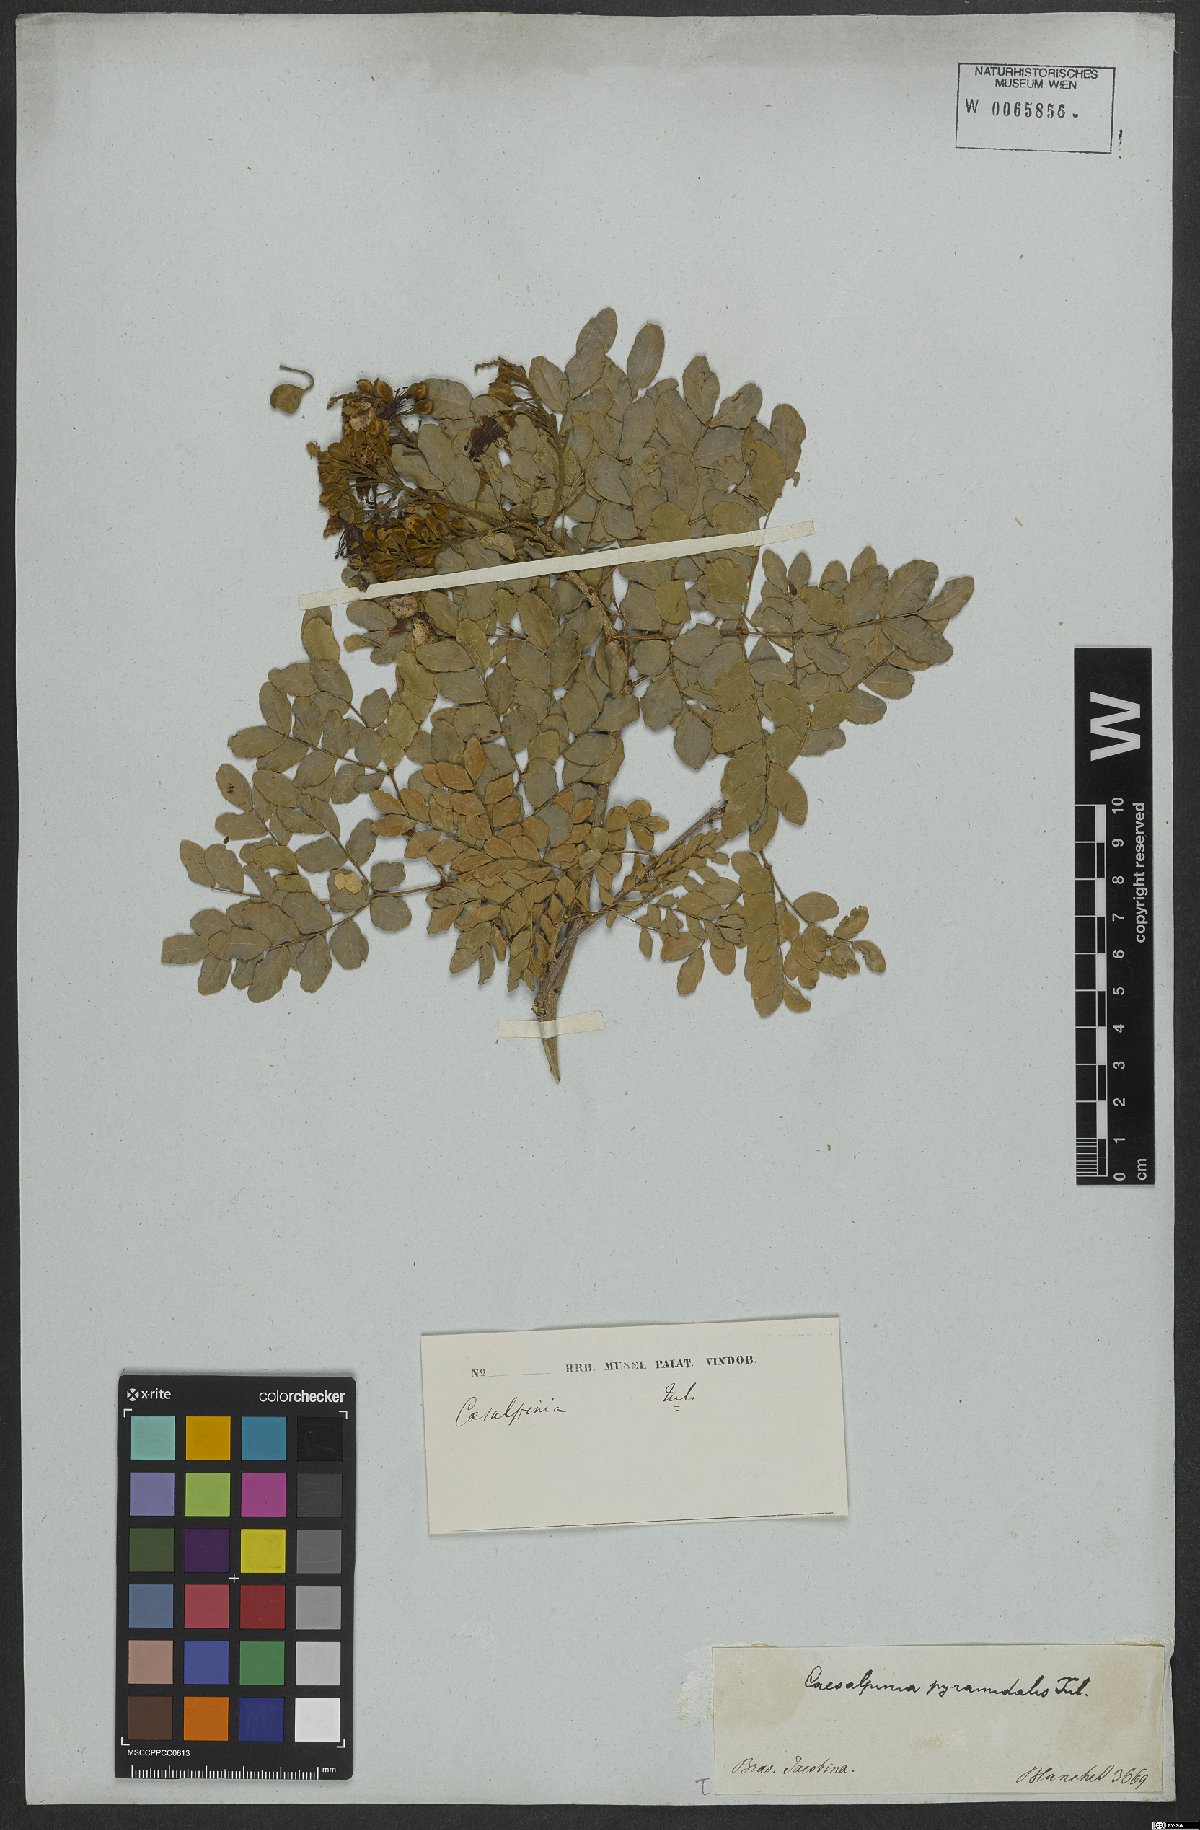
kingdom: Plantae
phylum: Tracheophyta
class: Magnoliopsida
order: Fabales
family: Fabaceae
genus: Cenostigma
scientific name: Cenostigma pyramidale
